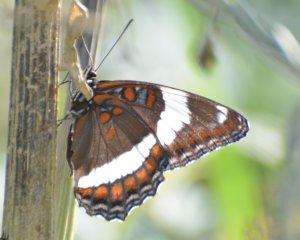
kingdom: Animalia
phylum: Arthropoda
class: Insecta
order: Lepidoptera
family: Nymphalidae
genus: Limenitis
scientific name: Limenitis arthemis
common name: Red-spotted Admiral
